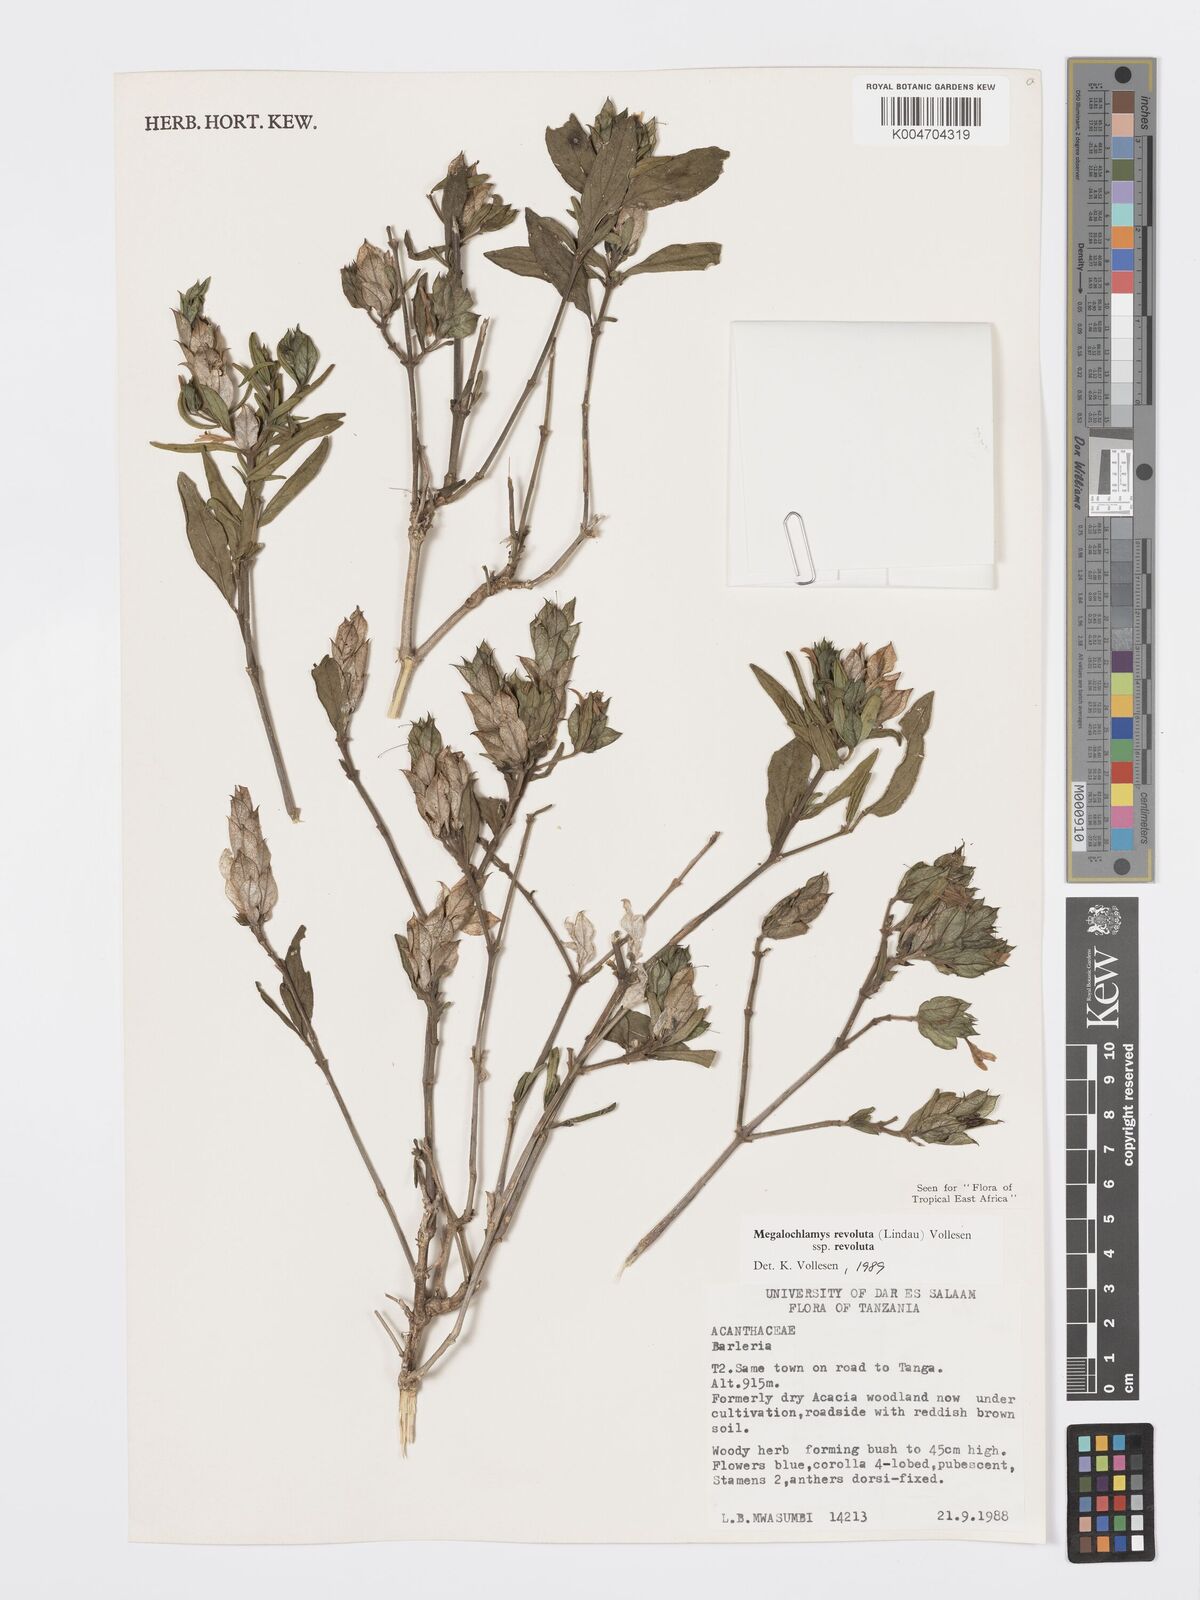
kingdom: Plantae
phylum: Tracheophyta
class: Magnoliopsida
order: Lamiales
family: Acanthaceae
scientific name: Acanthaceae
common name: Acanthaceae
